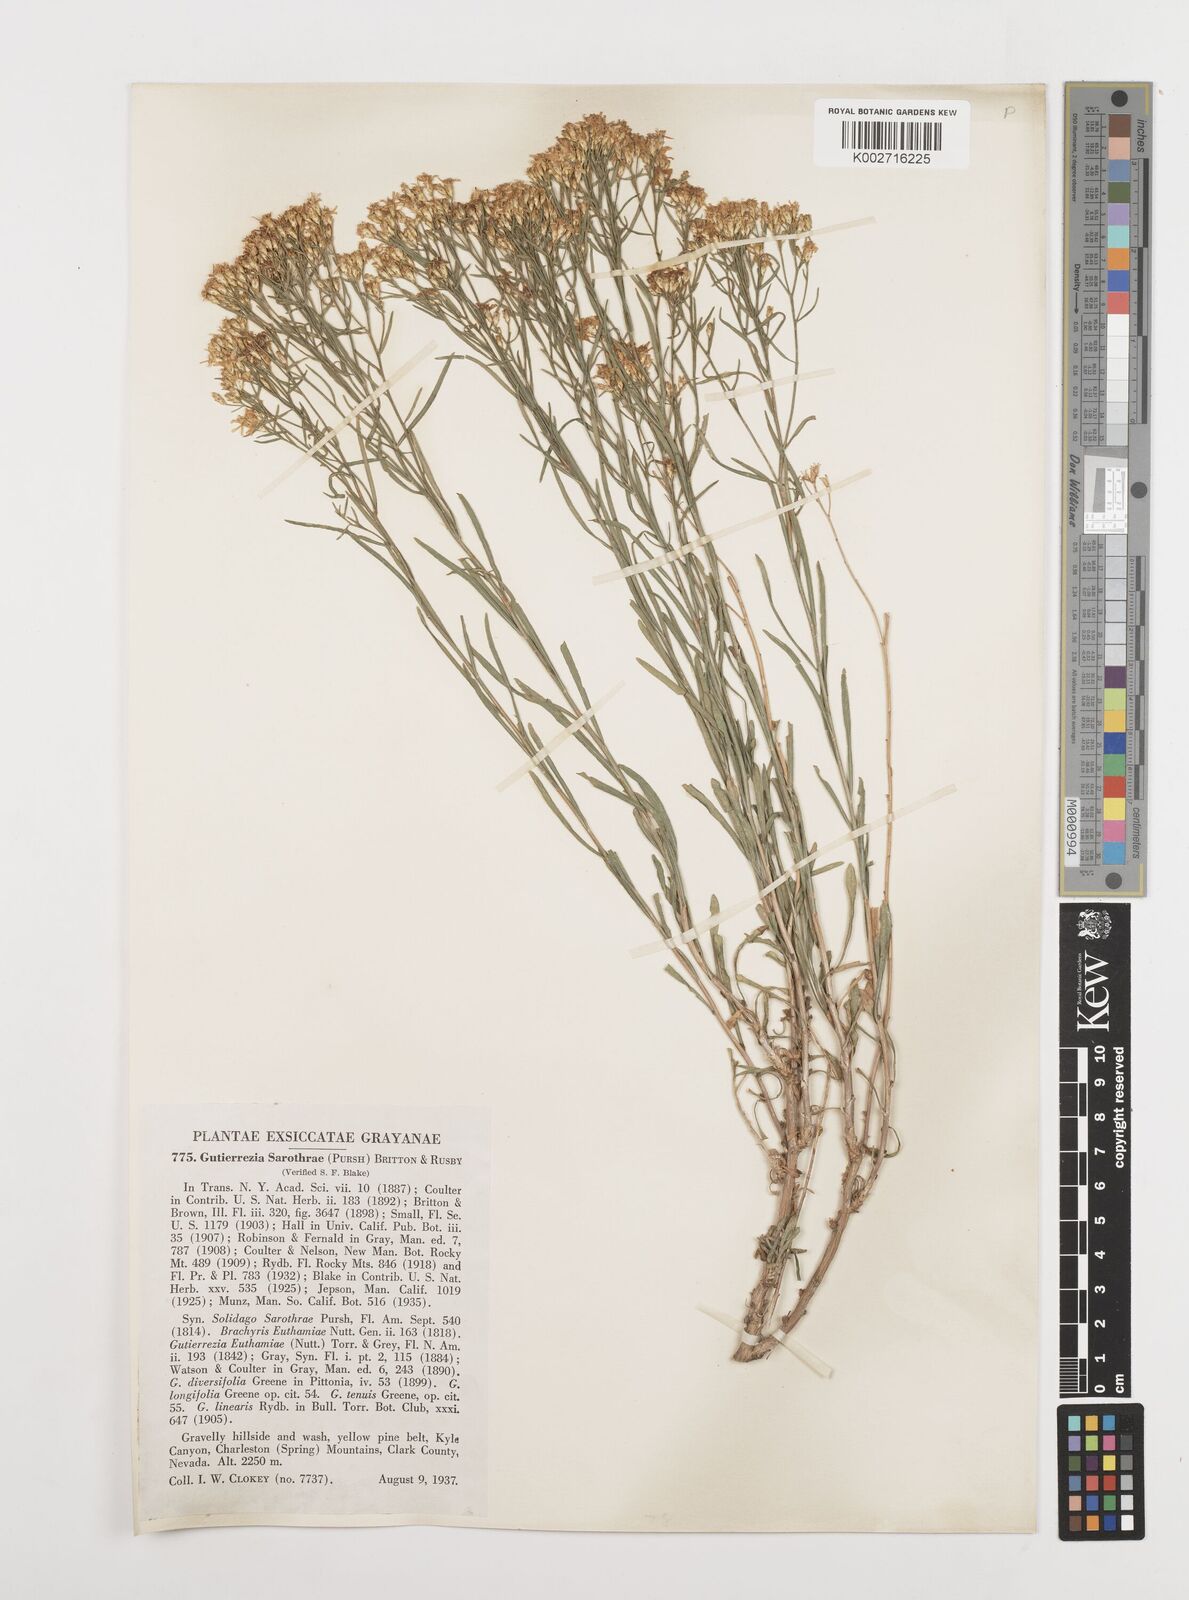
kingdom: Plantae
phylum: Tracheophyta
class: Magnoliopsida
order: Asterales
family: Asteraceae
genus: Gutierrezia
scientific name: Gutierrezia sarothrae
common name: Broom snakeweed
